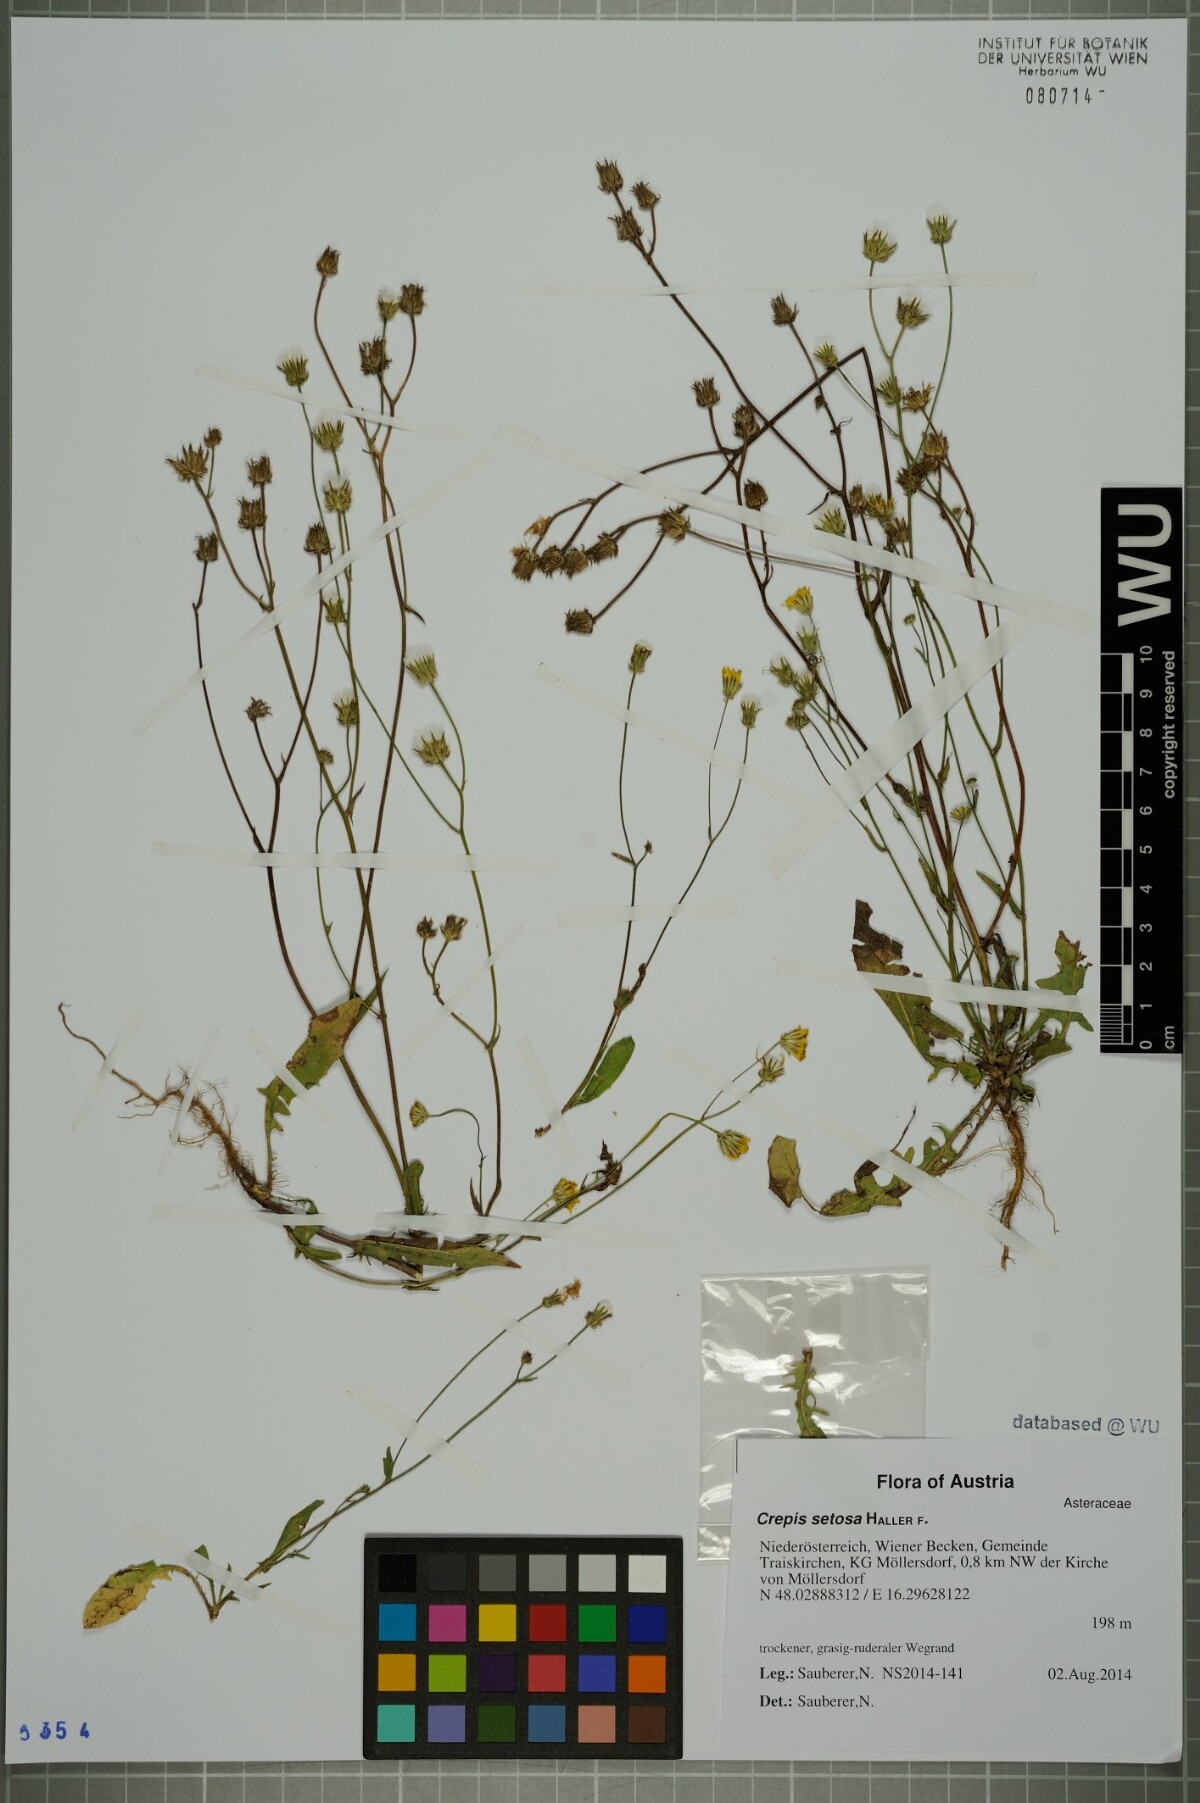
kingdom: Plantae
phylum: Tracheophyta
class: Magnoliopsida
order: Asterales
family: Asteraceae
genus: Crepis
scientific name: Crepis setosa
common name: Bristly hawk's-beard
